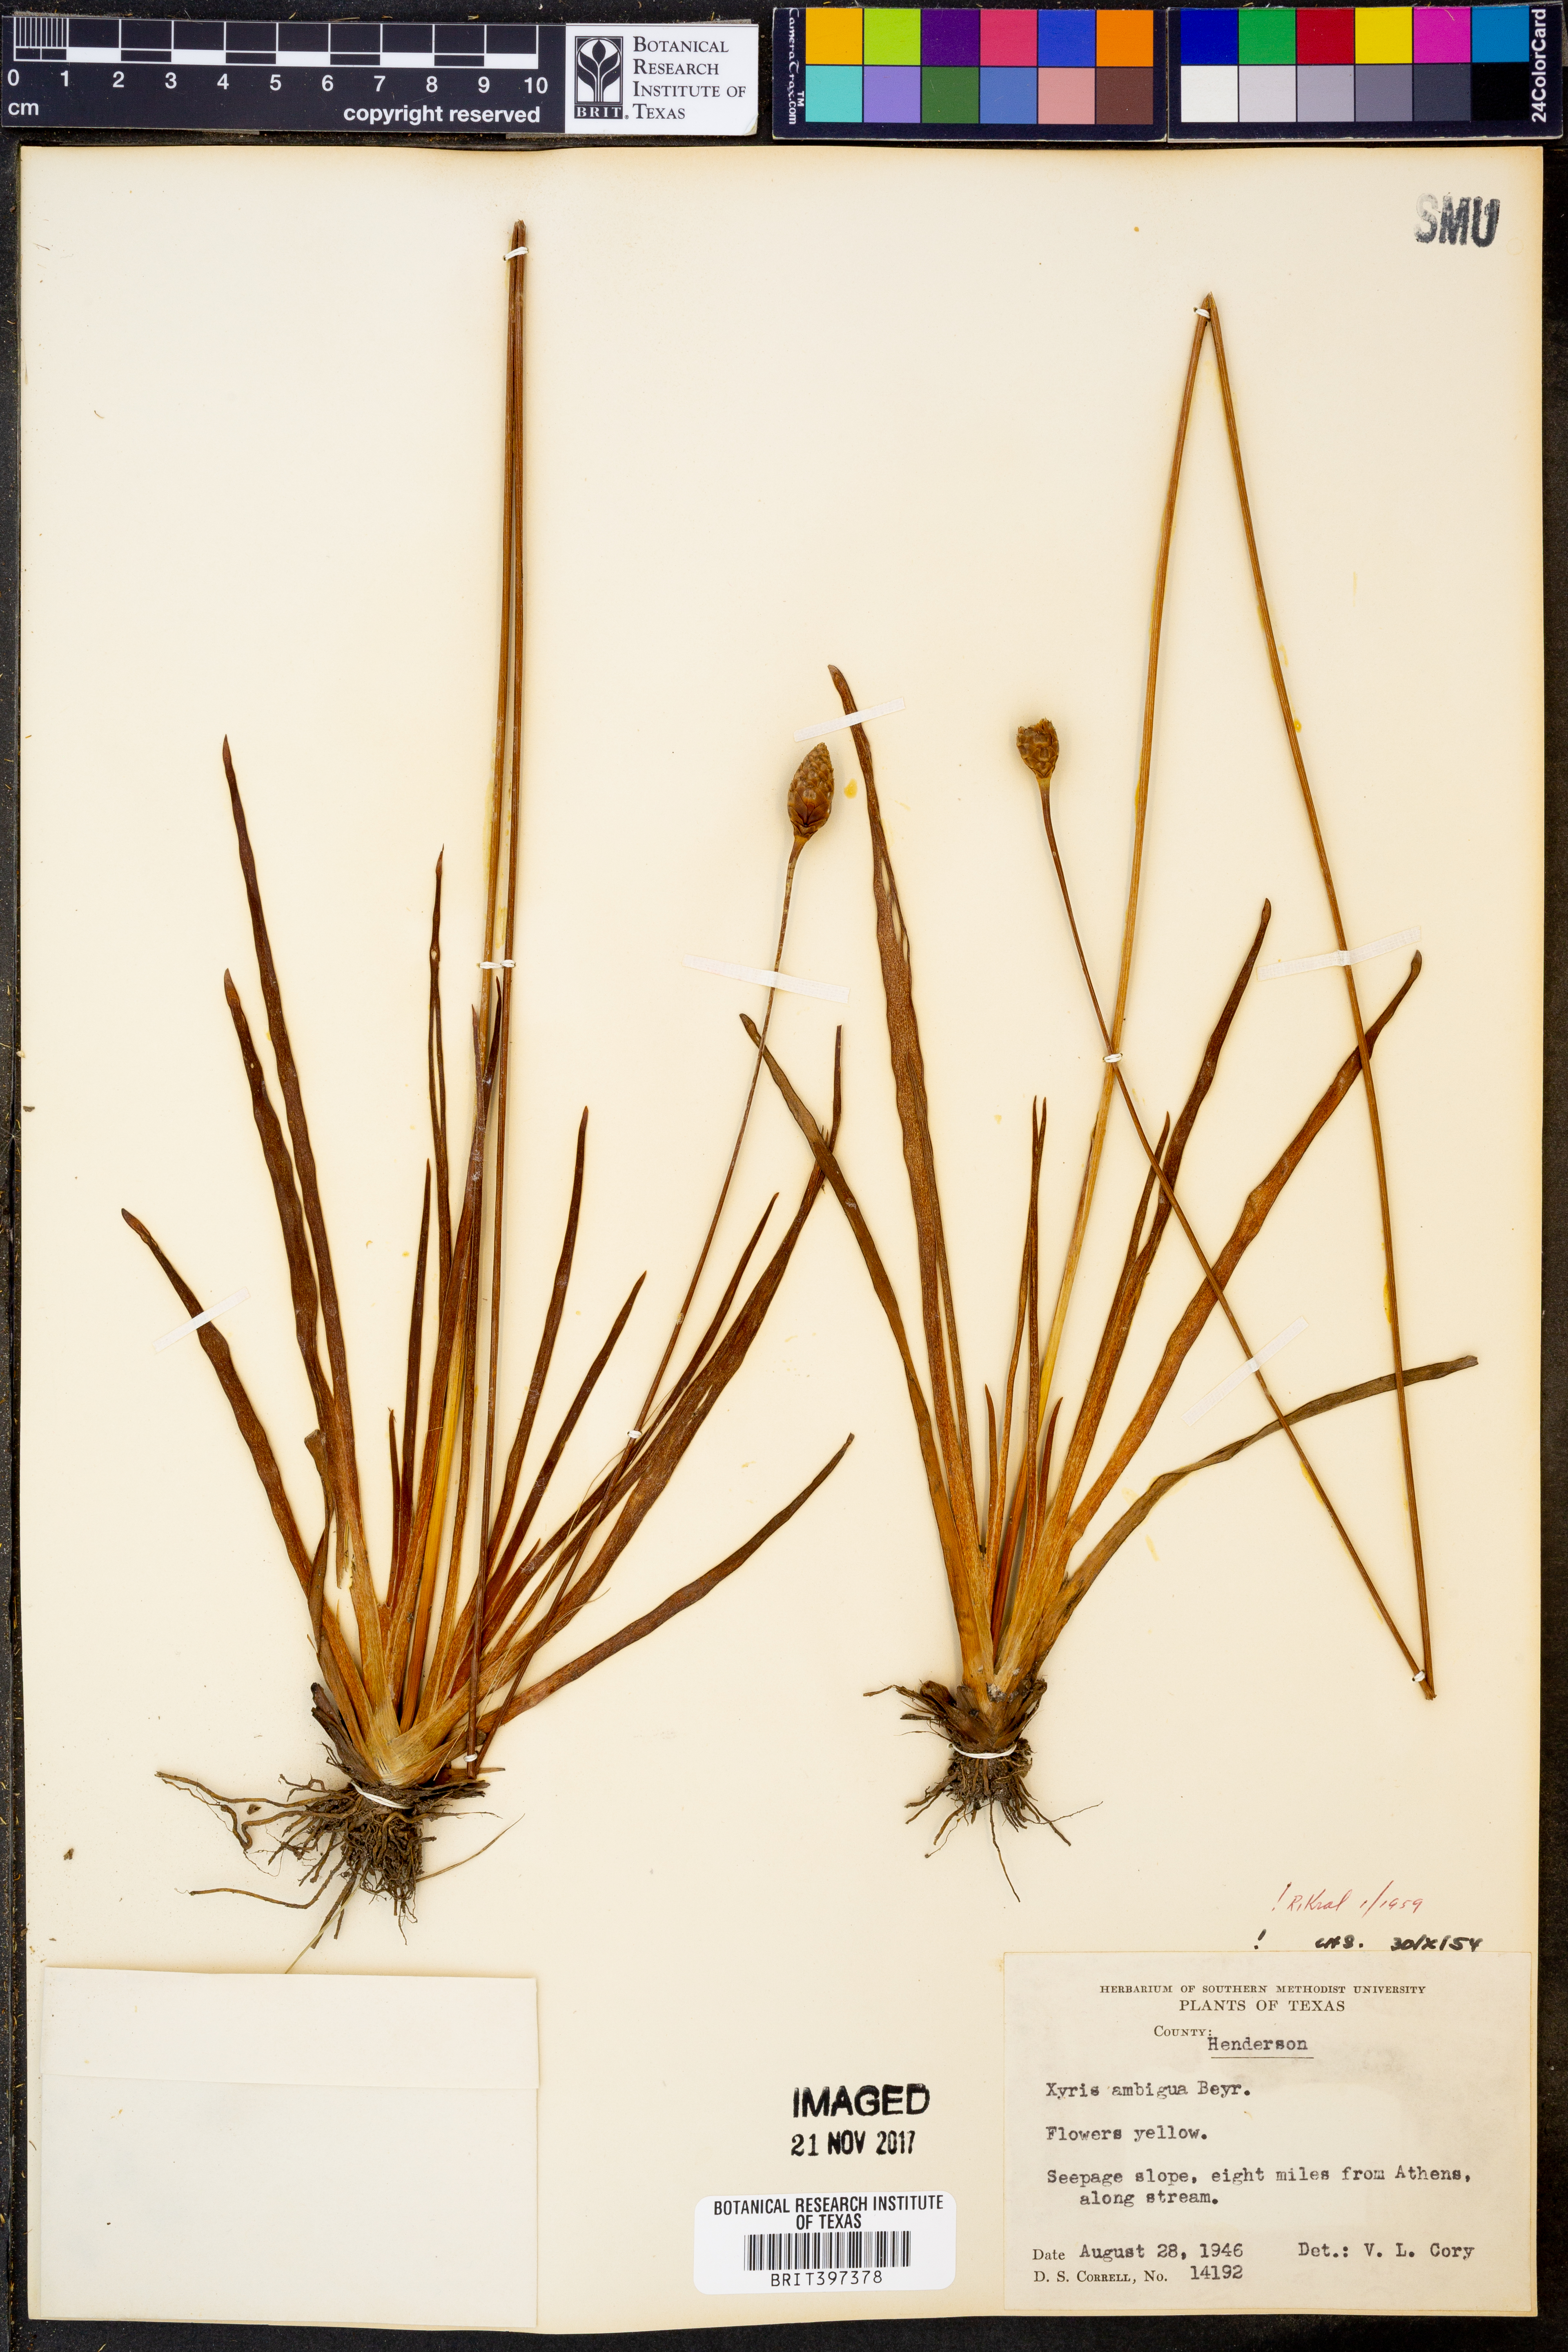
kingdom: Plantae
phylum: Tracheophyta
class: Liliopsida
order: Poales
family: Xyridaceae
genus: Xyris
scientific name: Xyris ambigua
